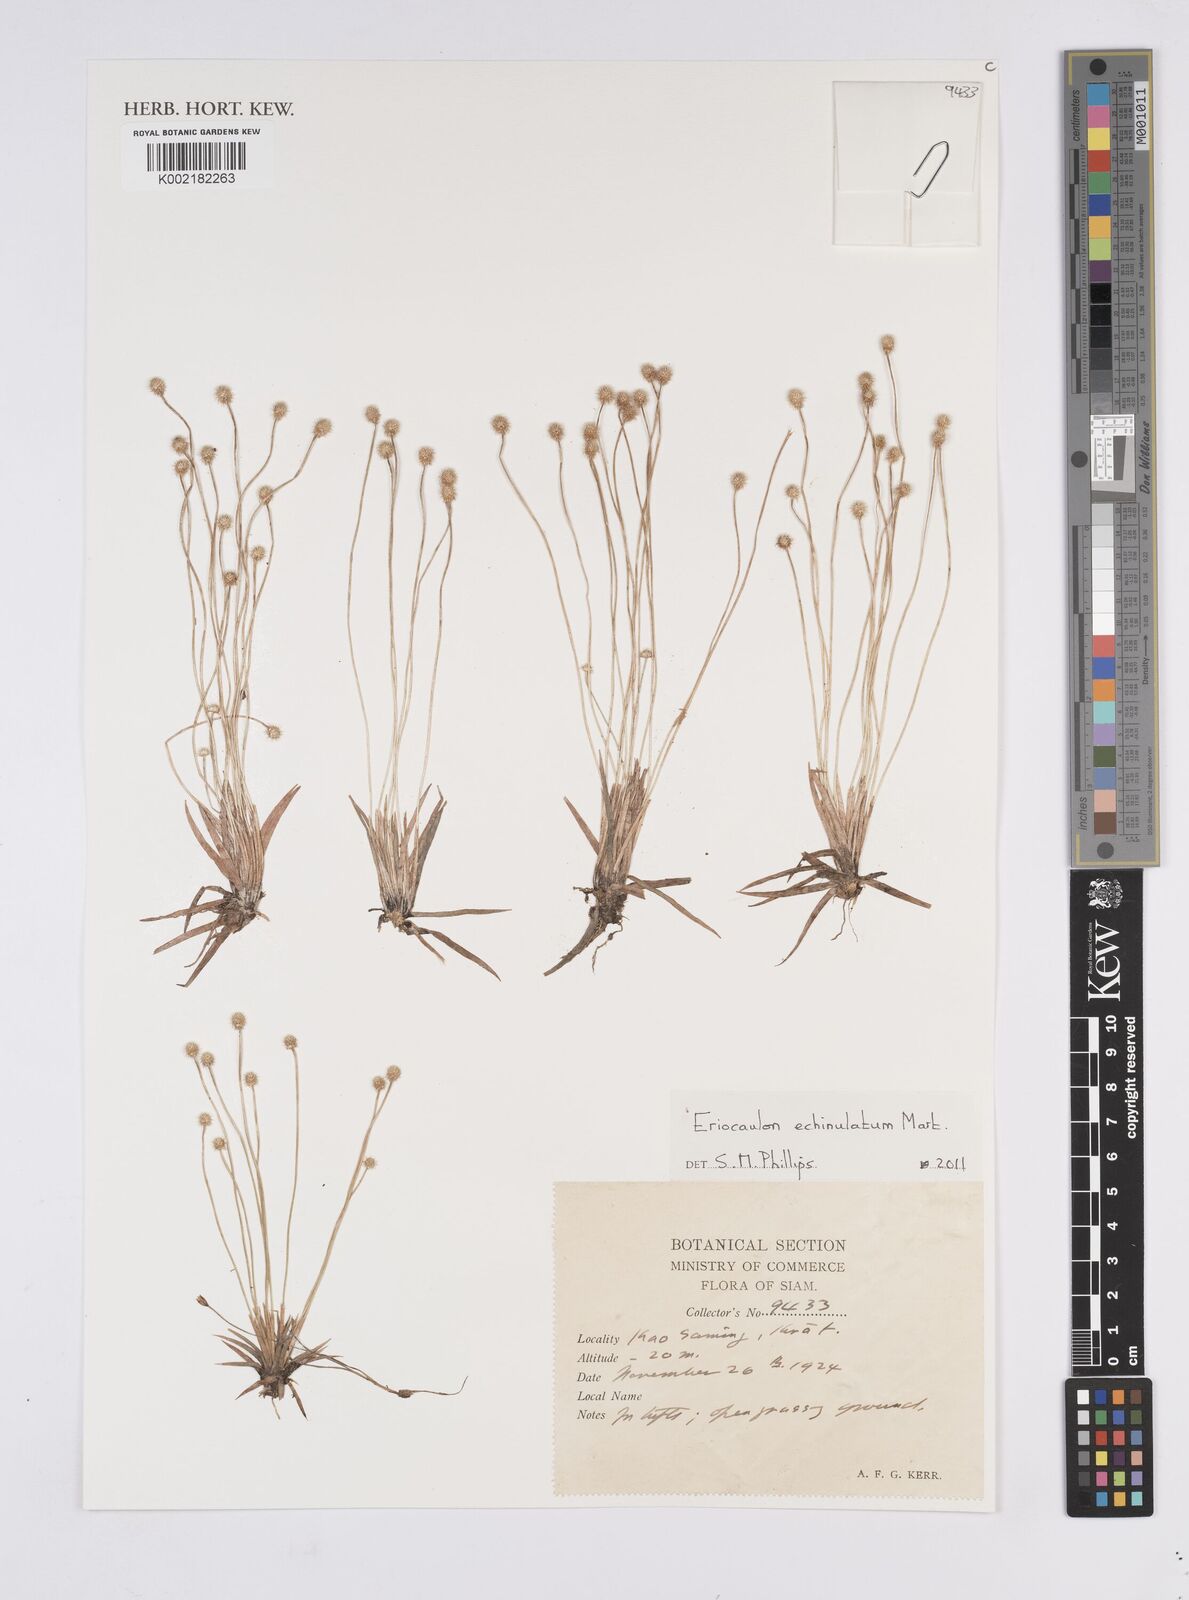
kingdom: Plantae
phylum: Tracheophyta
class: Liliopsida
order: Poales
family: Eriocaulaceae
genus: Eriocaulon
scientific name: Eriocaulon echinulatum
